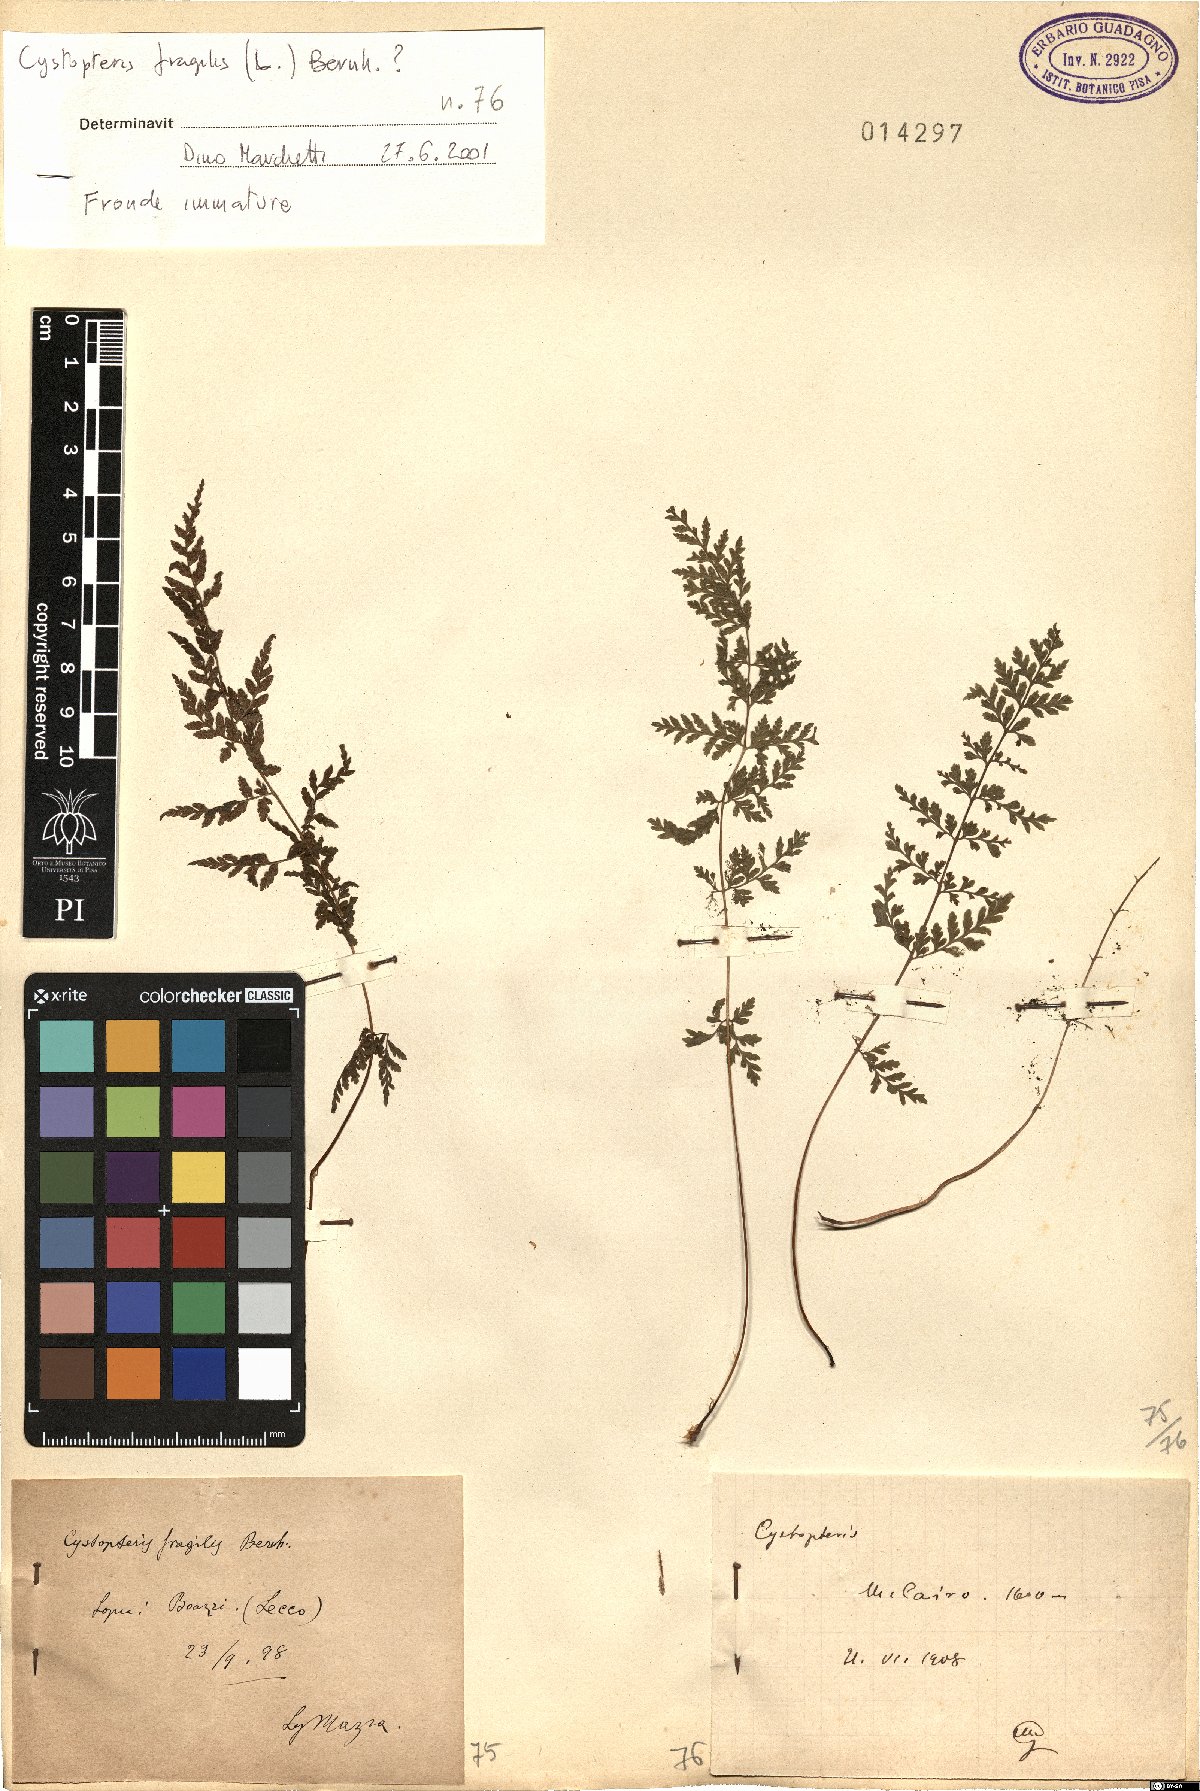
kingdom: Plantae
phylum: Tracheophyta
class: Polypodiopsida
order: Polypodiales
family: Cystopteridaceae
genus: Cystopteris
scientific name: Cystopteris fragilis
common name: Brittle bladder fern
